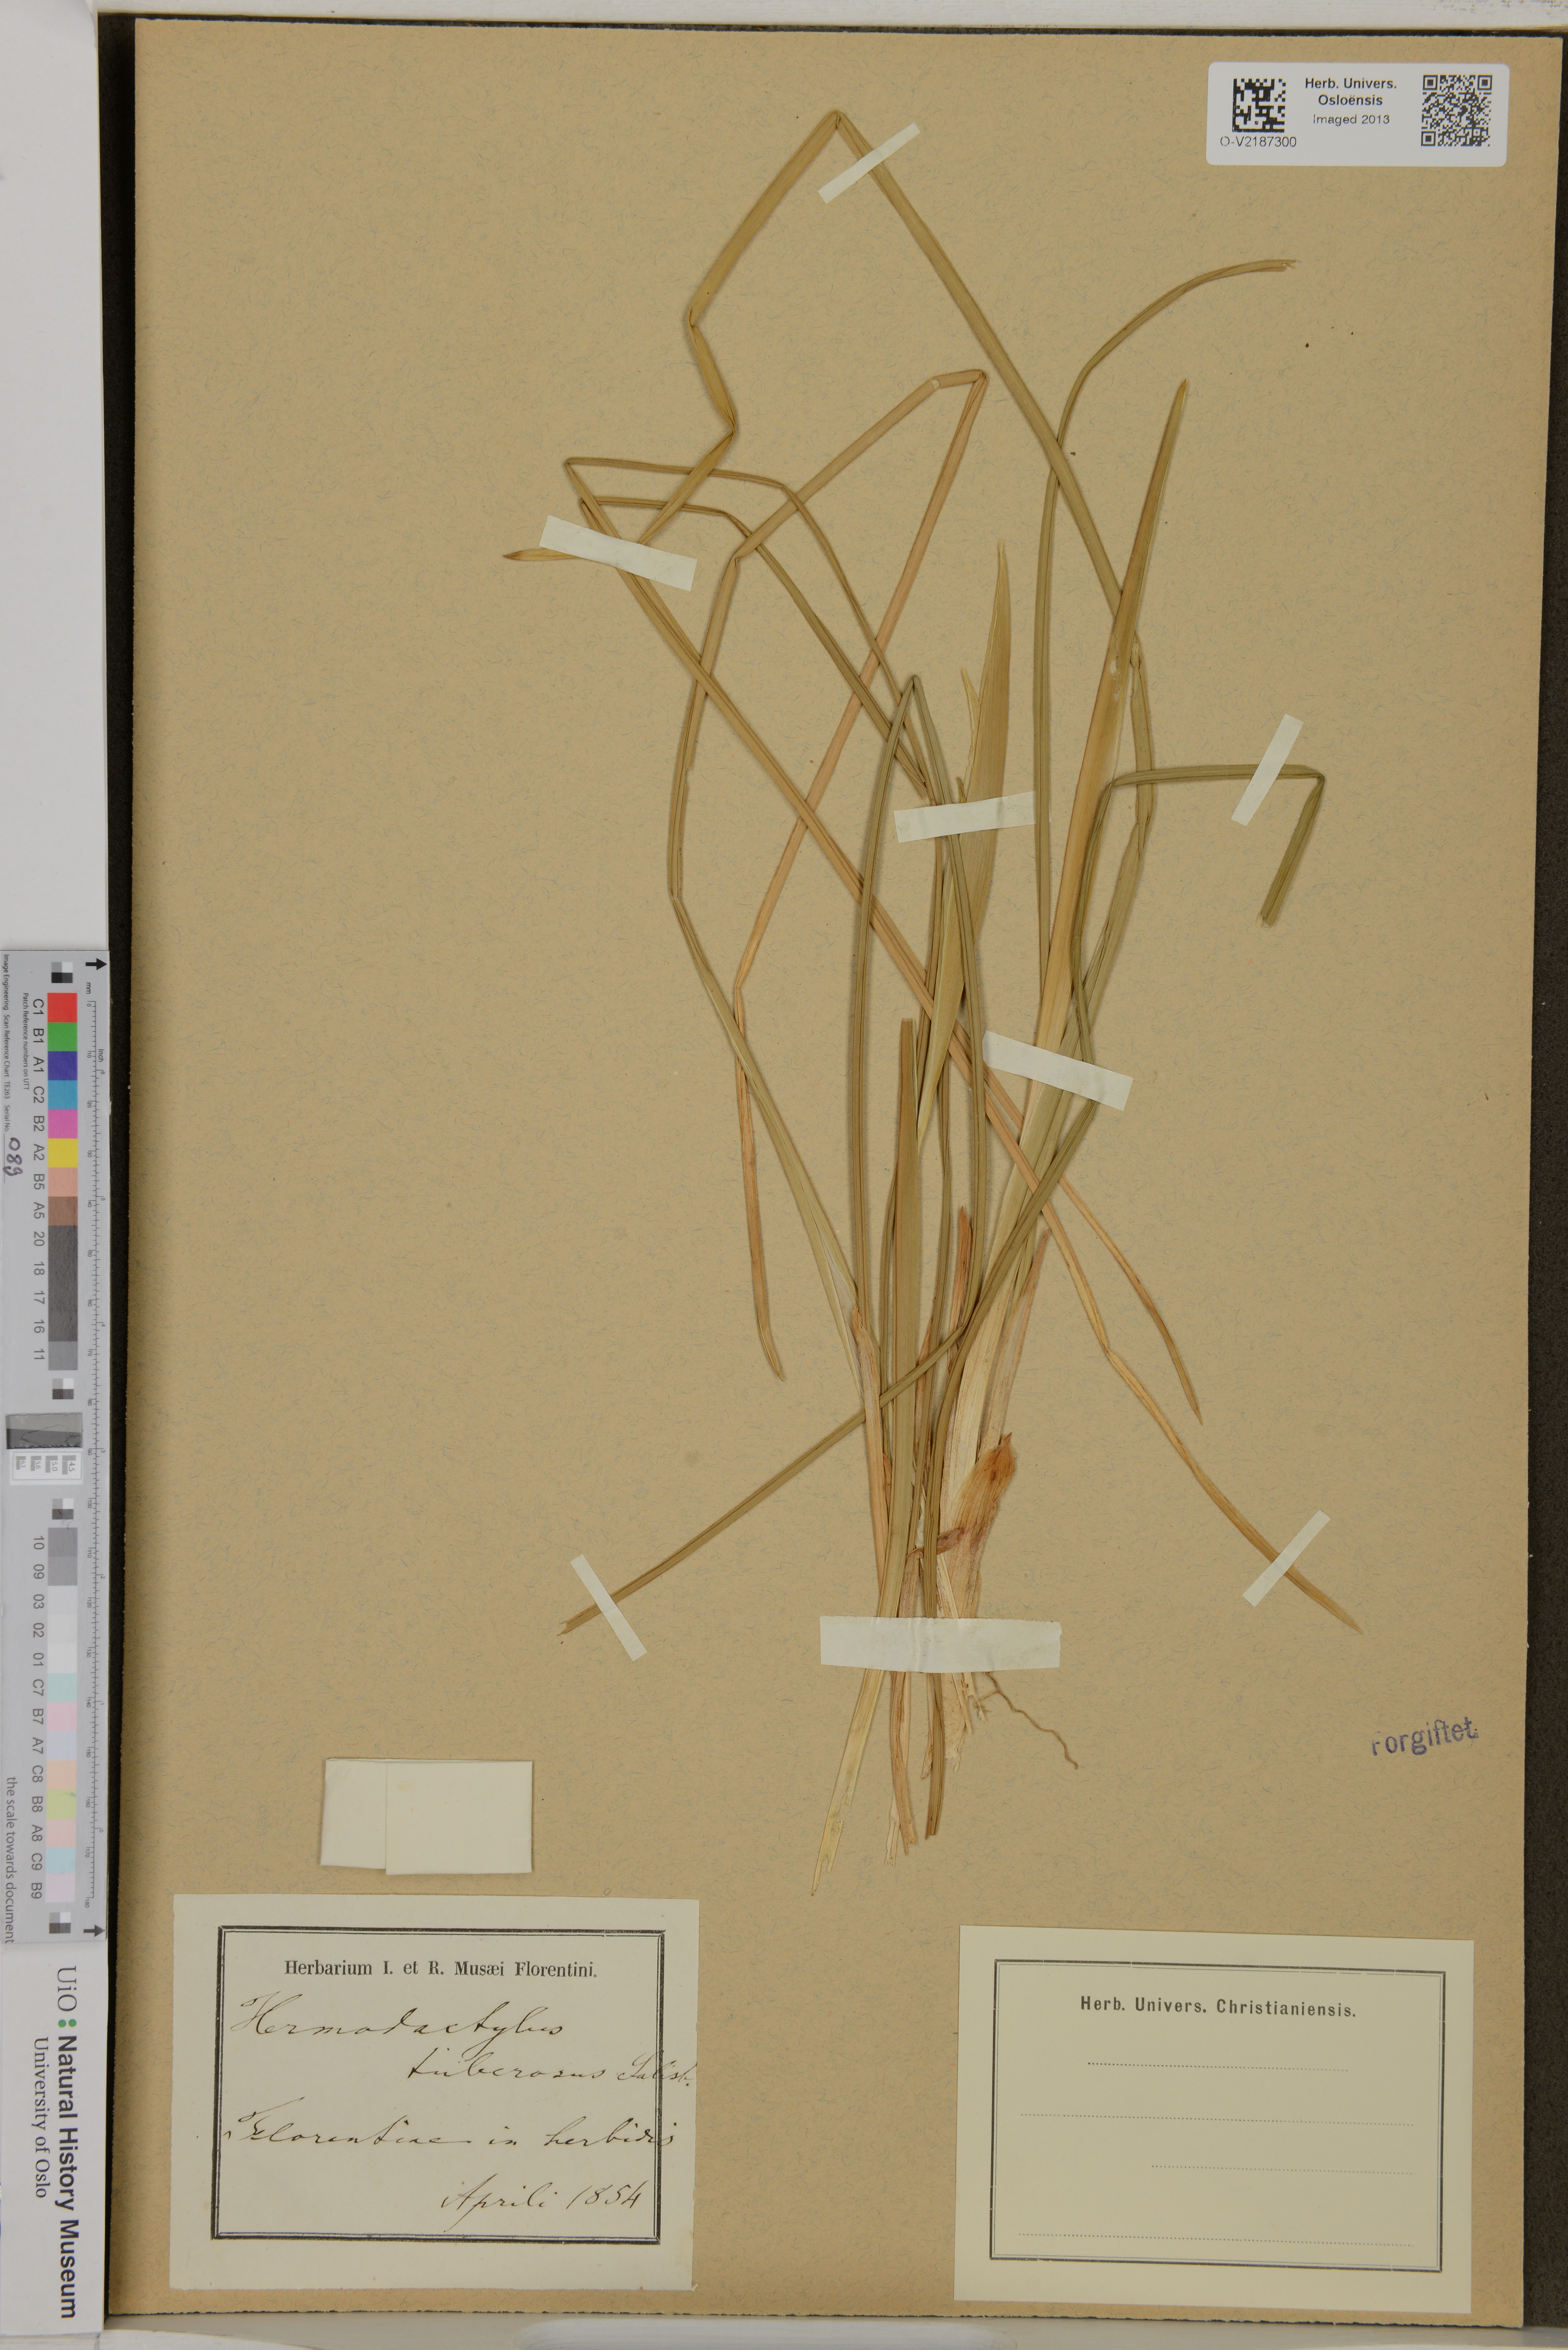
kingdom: Plantae
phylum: Tracheophyta
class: Liliopsida
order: Asparagales
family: Iridaceae
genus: Iris
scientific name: Iris tuberosa
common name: Snake's-head iris
